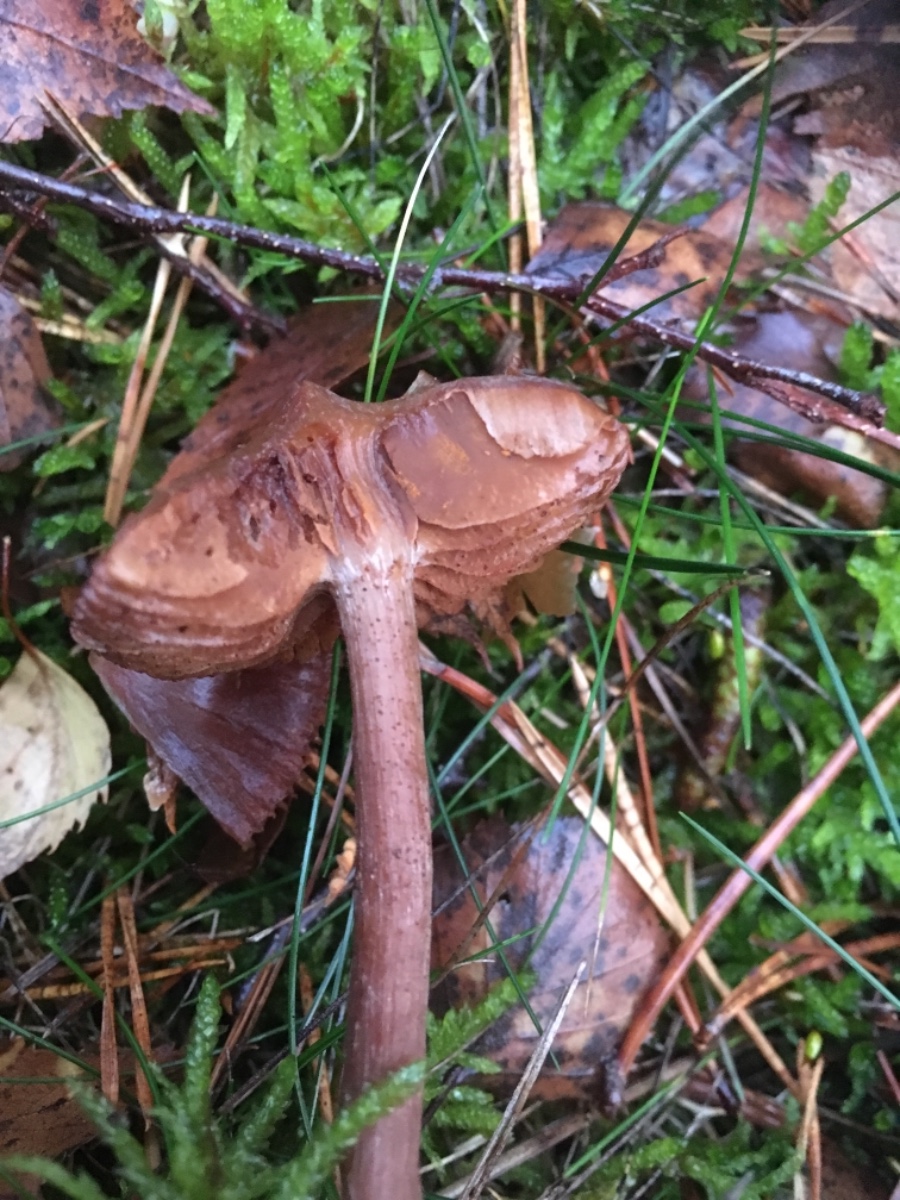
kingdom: Fungi
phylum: Basidiomycota
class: Agaricomycetes
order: Agaricales
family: Cortinariaceae
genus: Cortinarius
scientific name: Cortinarius
